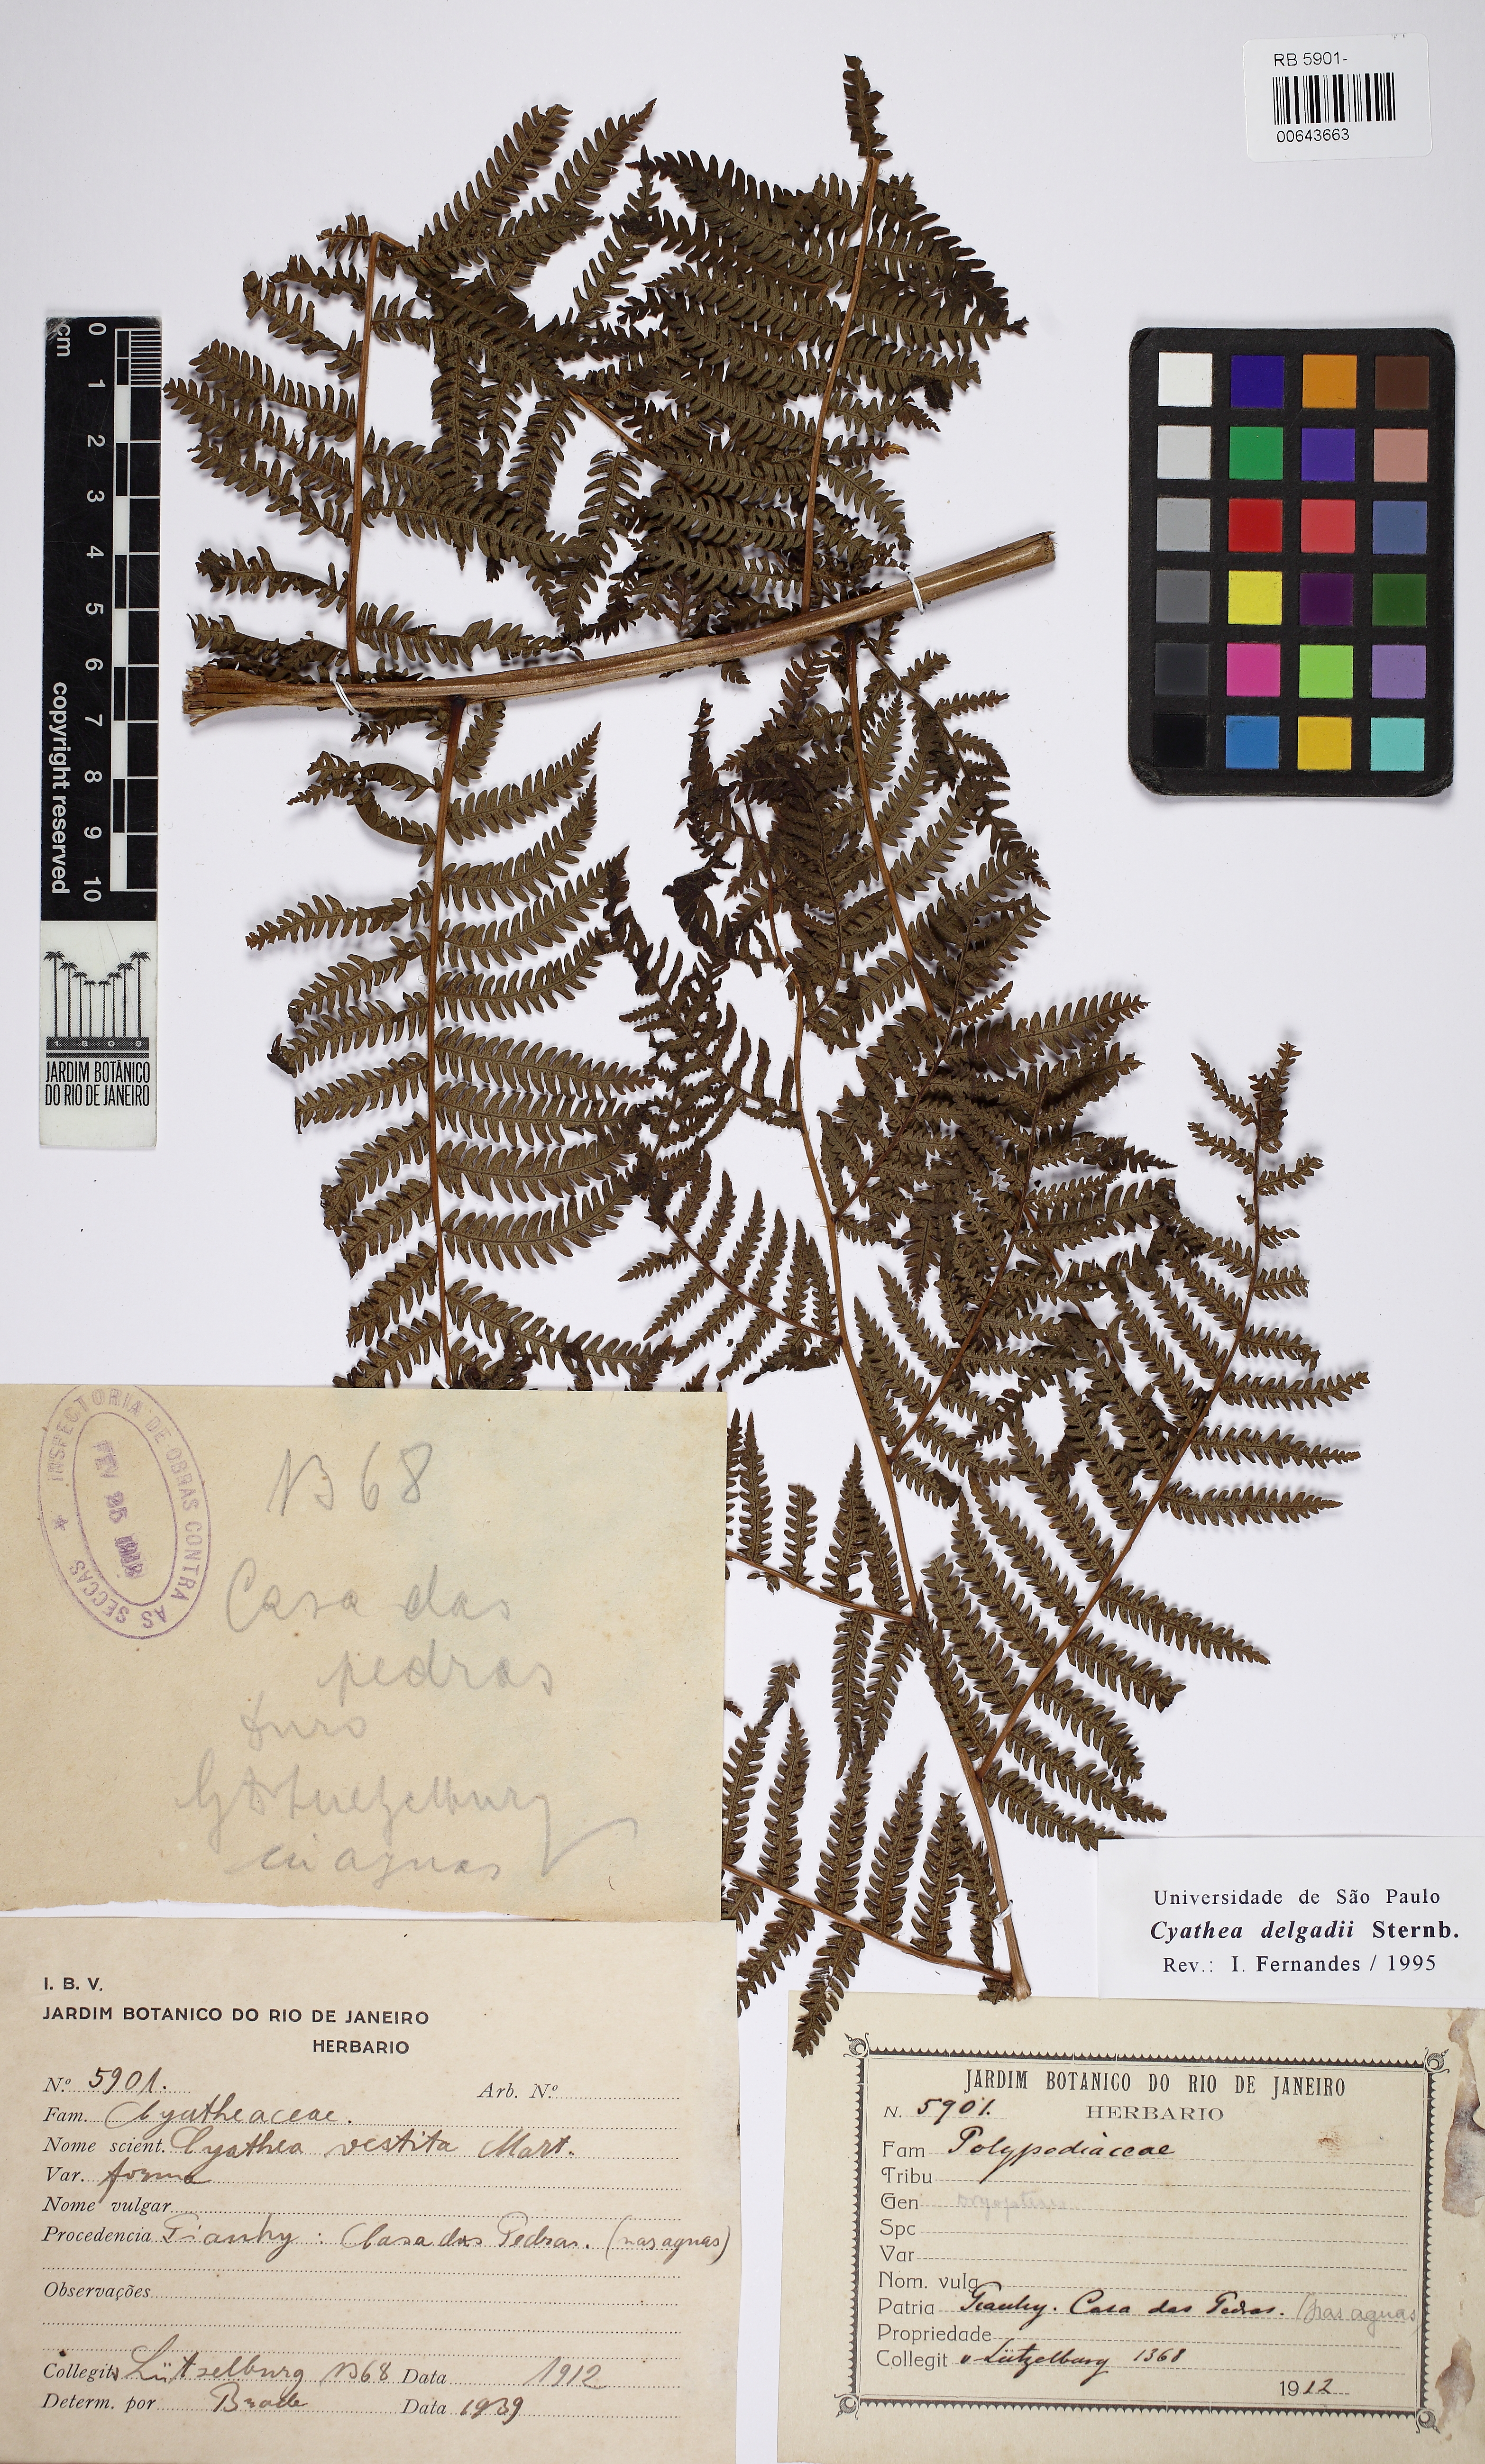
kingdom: Plantae
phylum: Tracheophyta
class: Polypodiopsida
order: Cyatheales
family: Cyatheaceae
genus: Cyathea
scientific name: Cyathea delgadii
